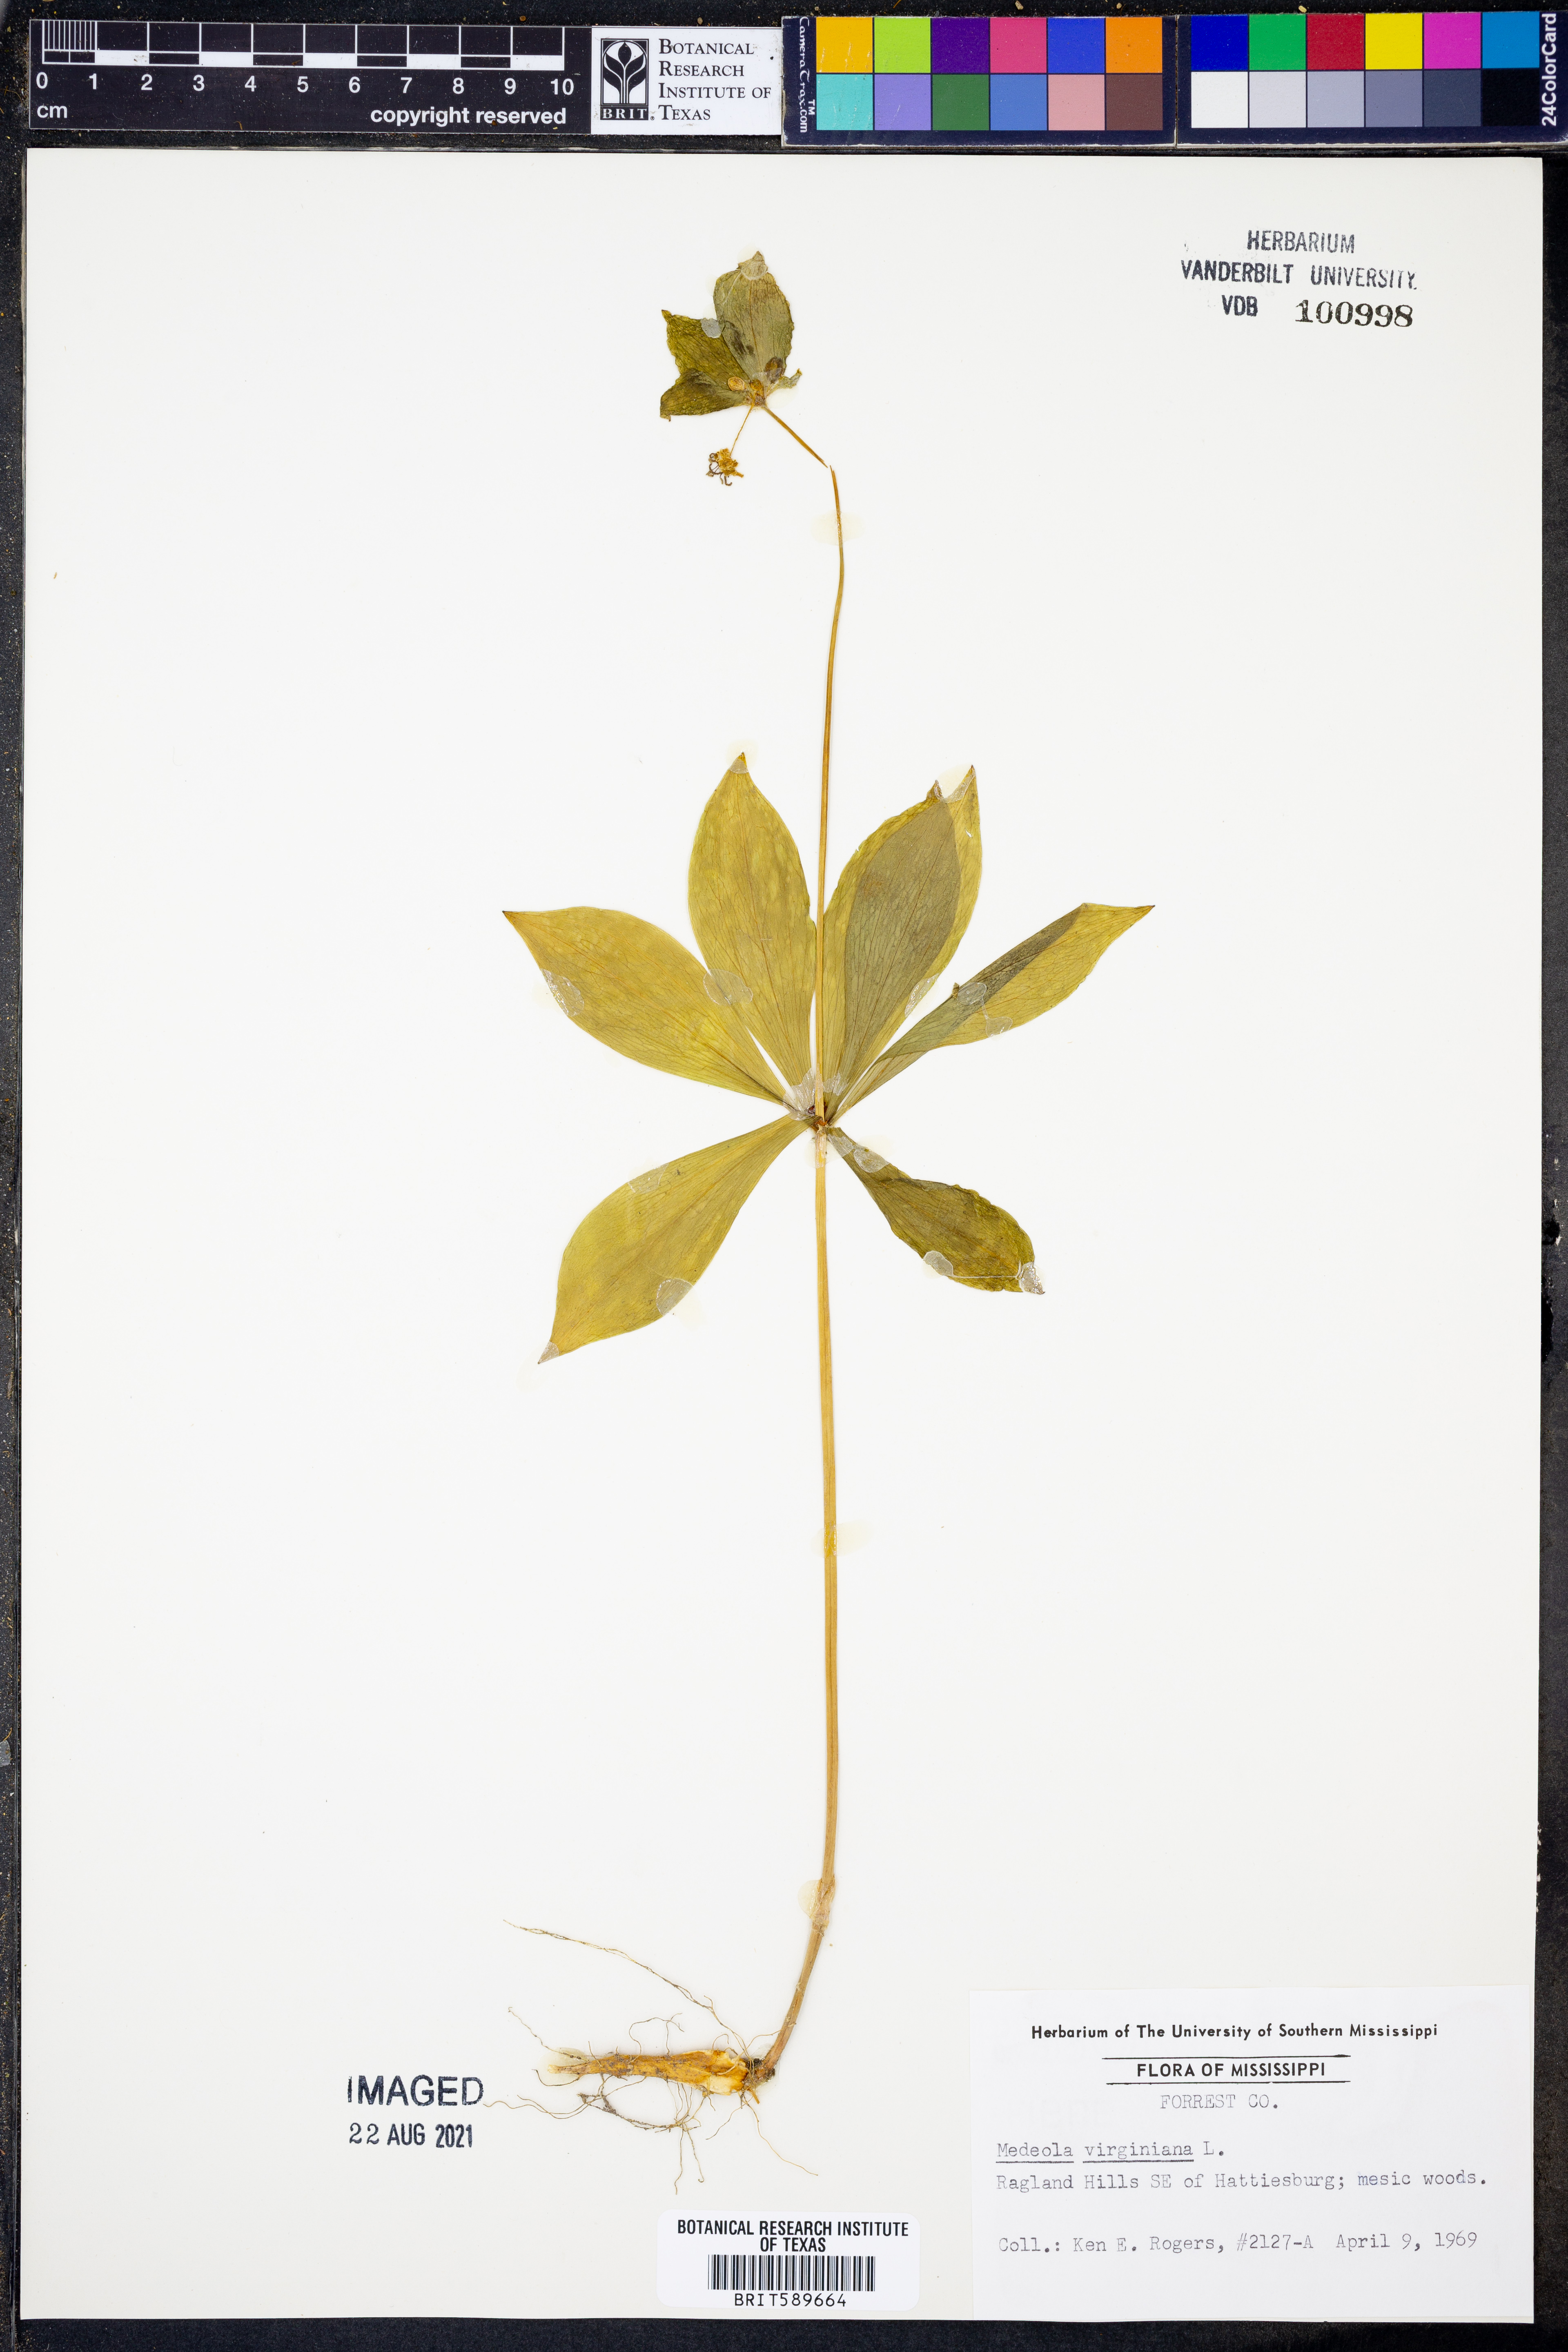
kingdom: Plantae
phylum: Tracheophyta
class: Liliopsida
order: Liliales
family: Liliaceae
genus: Medeola
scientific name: Medeola virginiana
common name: Indian cucumber-root
